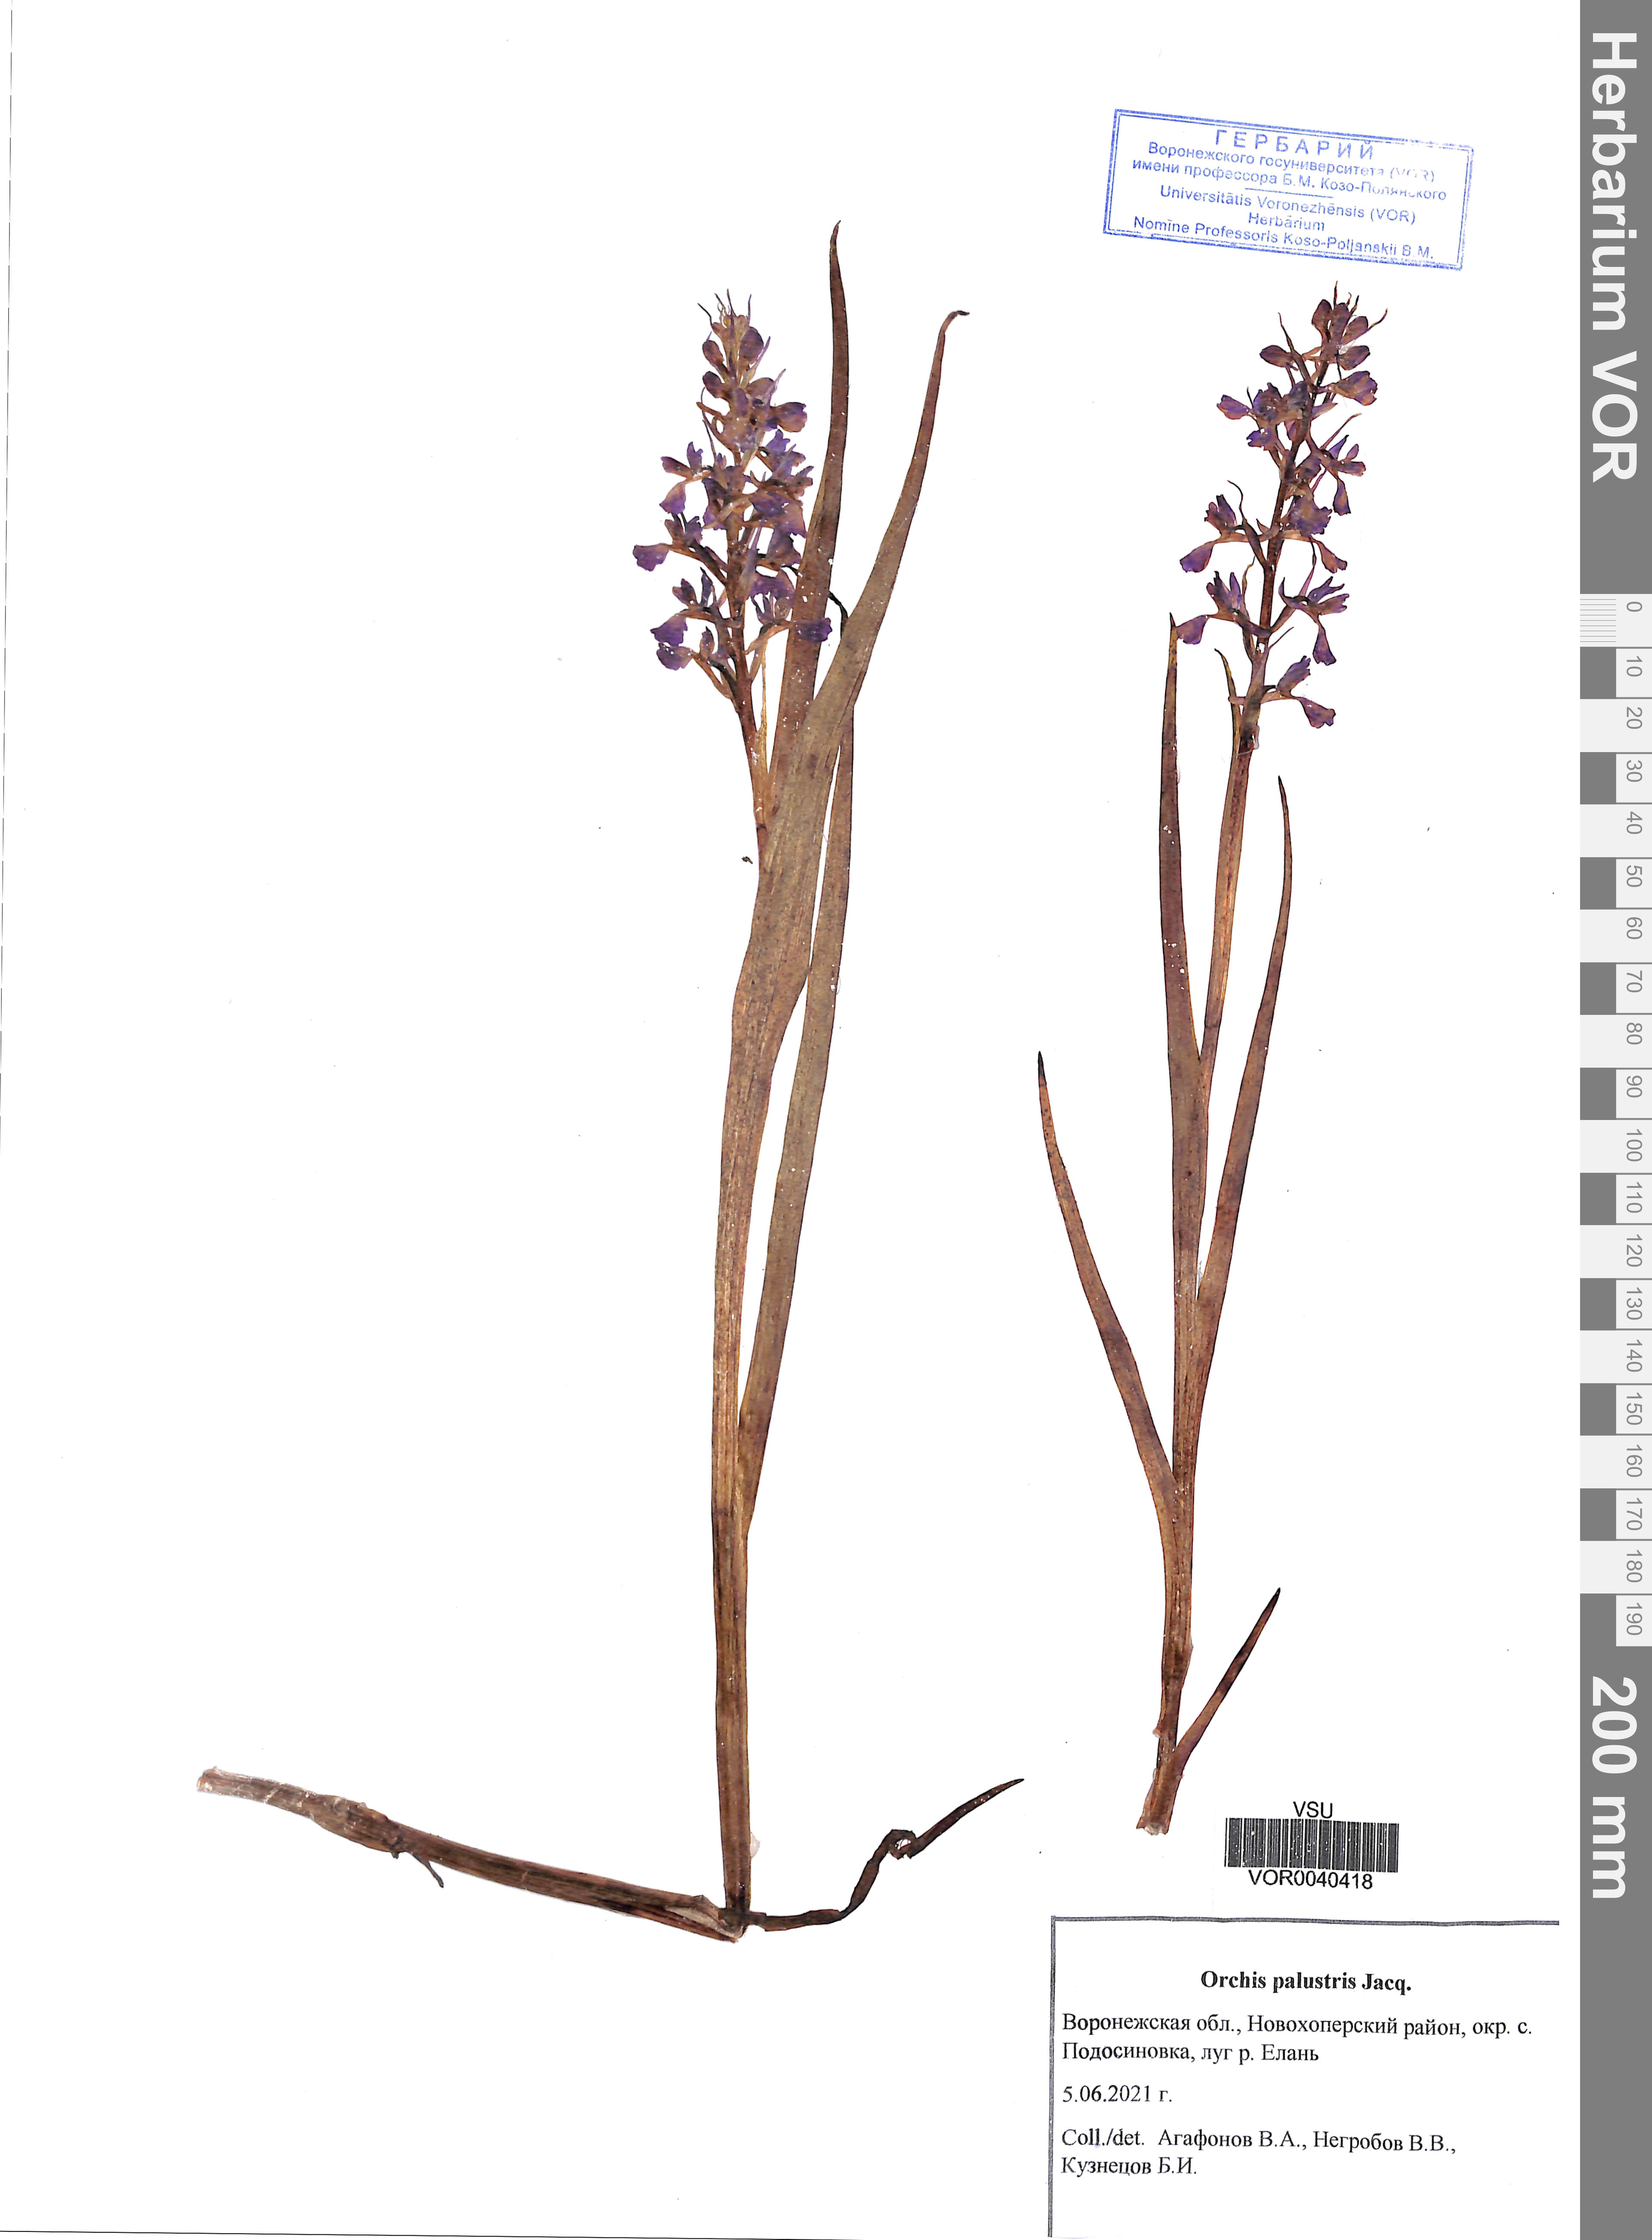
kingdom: Plantae
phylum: Tracheophyta
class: Liliopsida
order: Asparagales
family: Orchidaceae
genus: Anacamptis
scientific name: Anacamptis palustris
